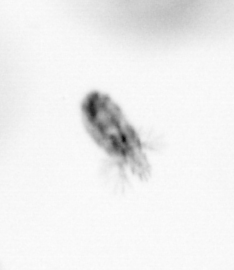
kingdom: Animalia
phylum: Arthropoda
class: Copepoda
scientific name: Copepoda
